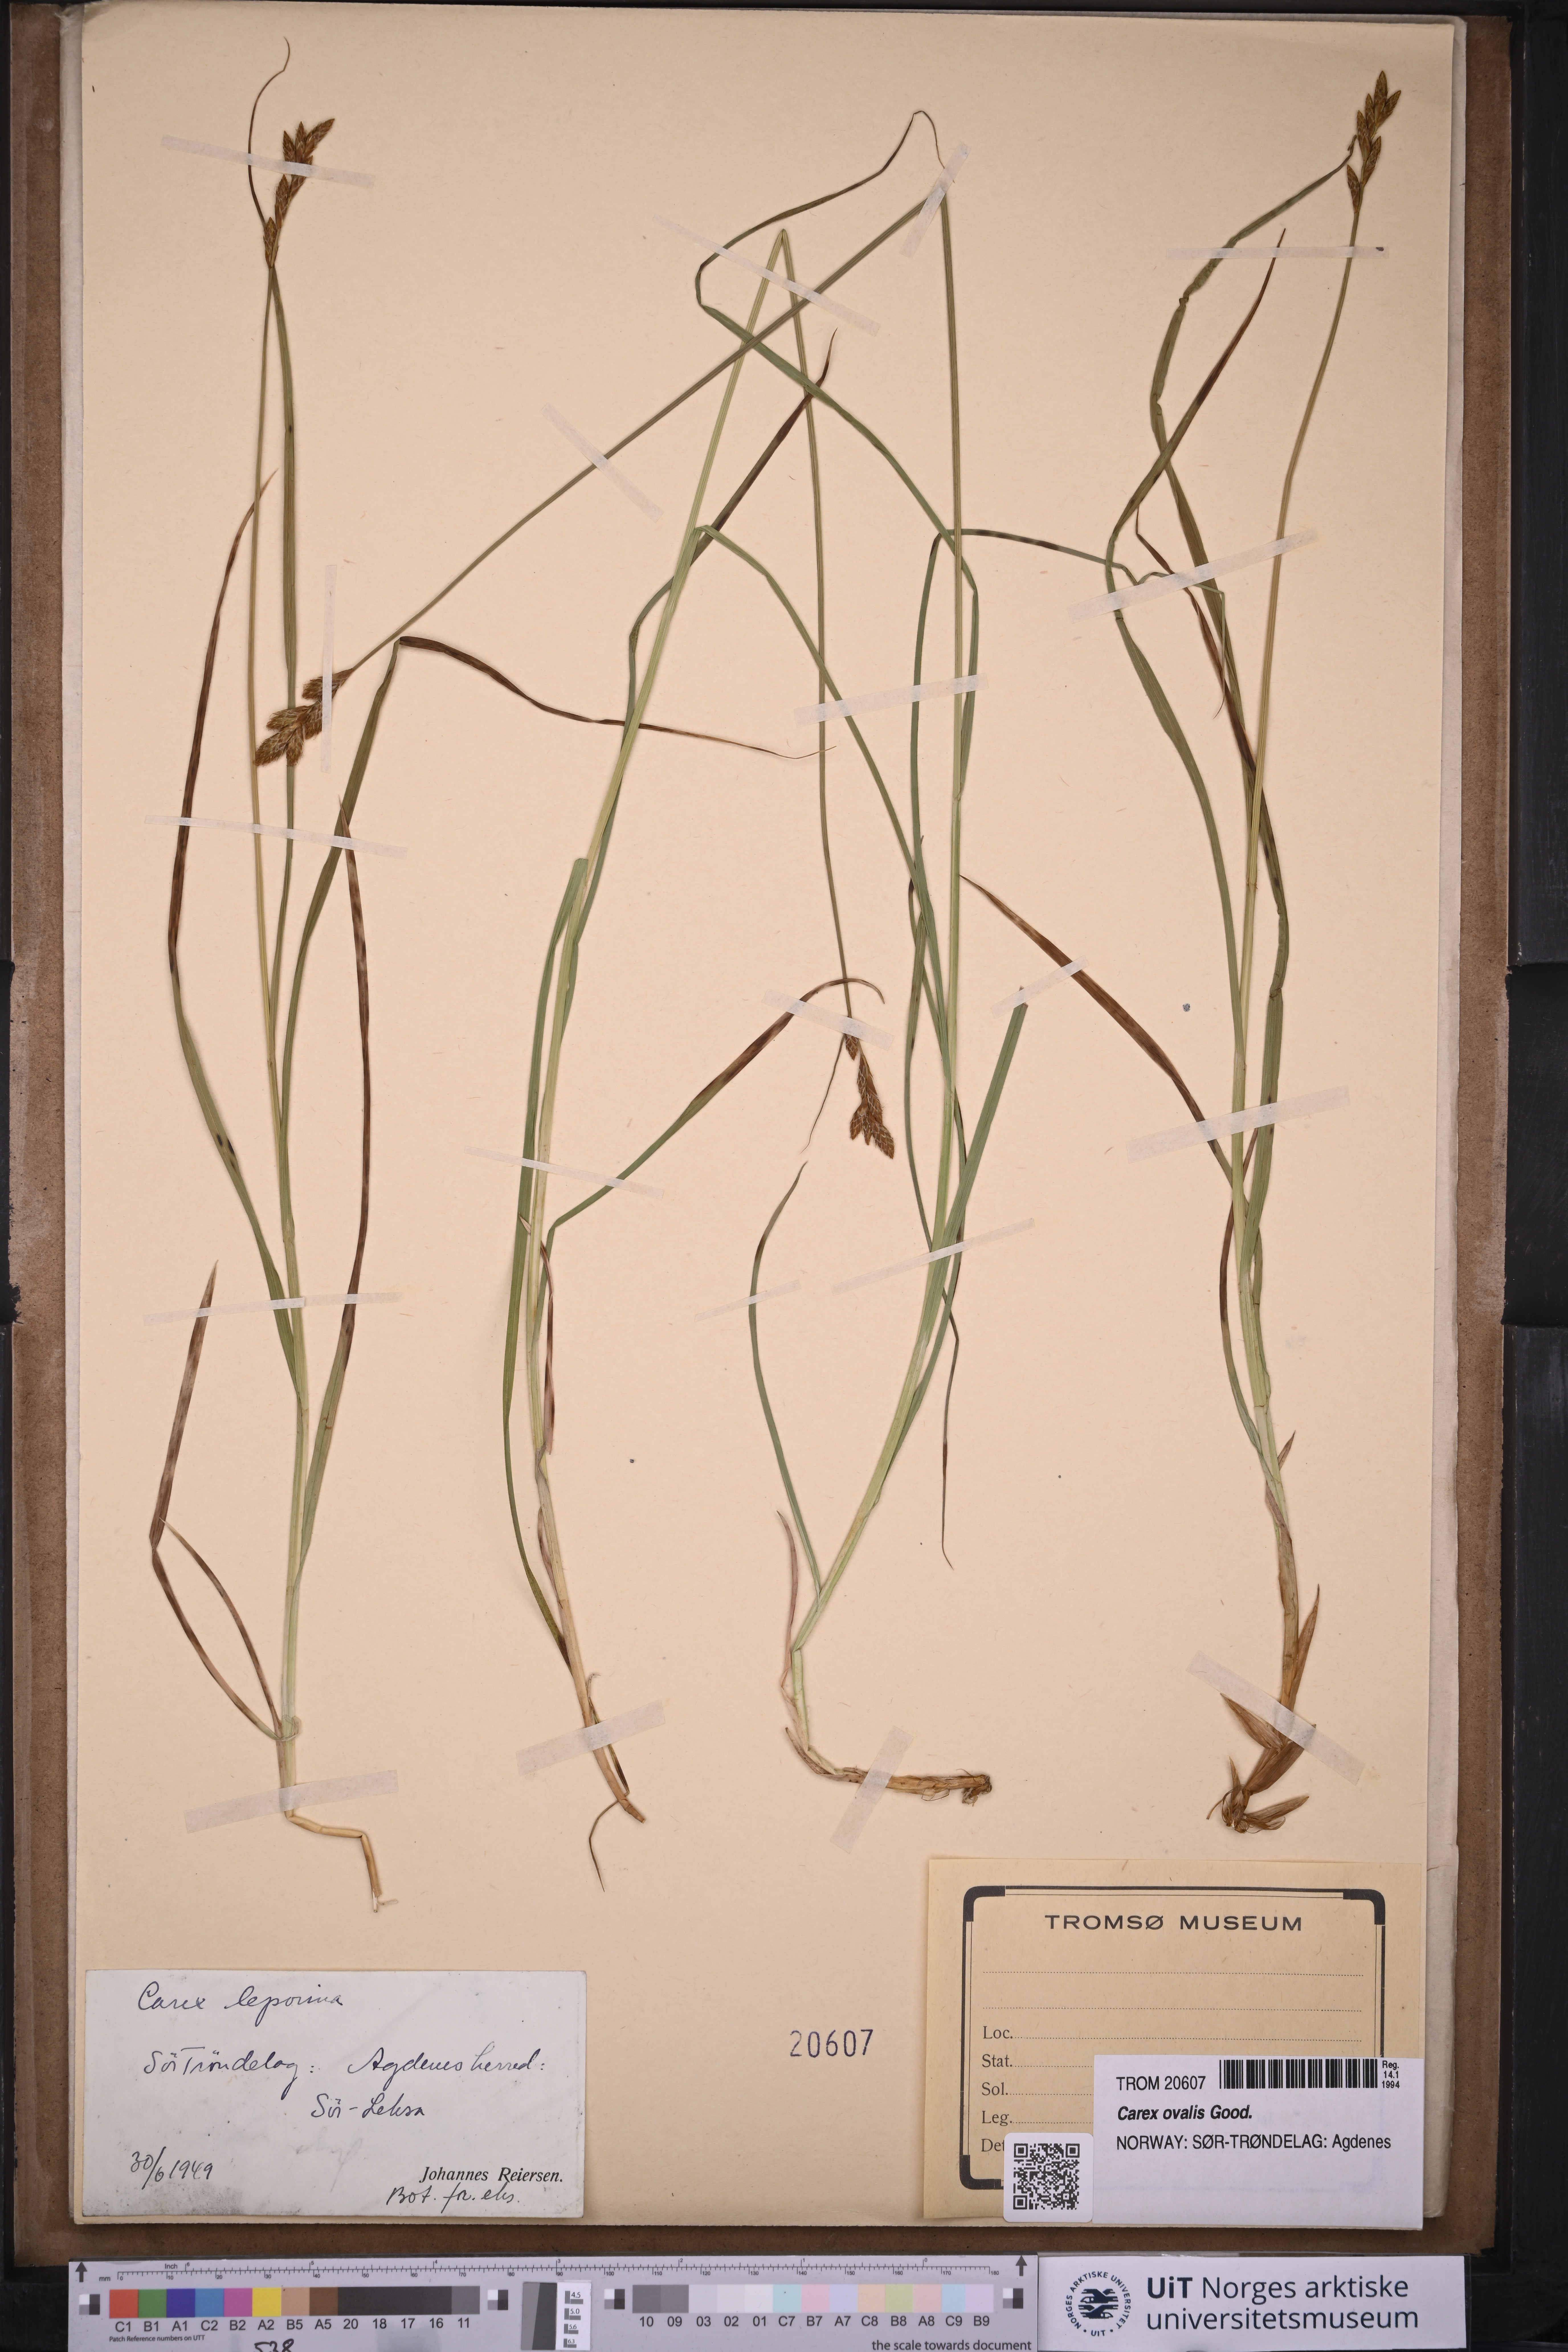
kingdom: Plantae
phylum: Tracheophyta
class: Liliopsida
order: Poales
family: Cyperaceae
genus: Carex
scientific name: Carex leporina
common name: Oval sedge
